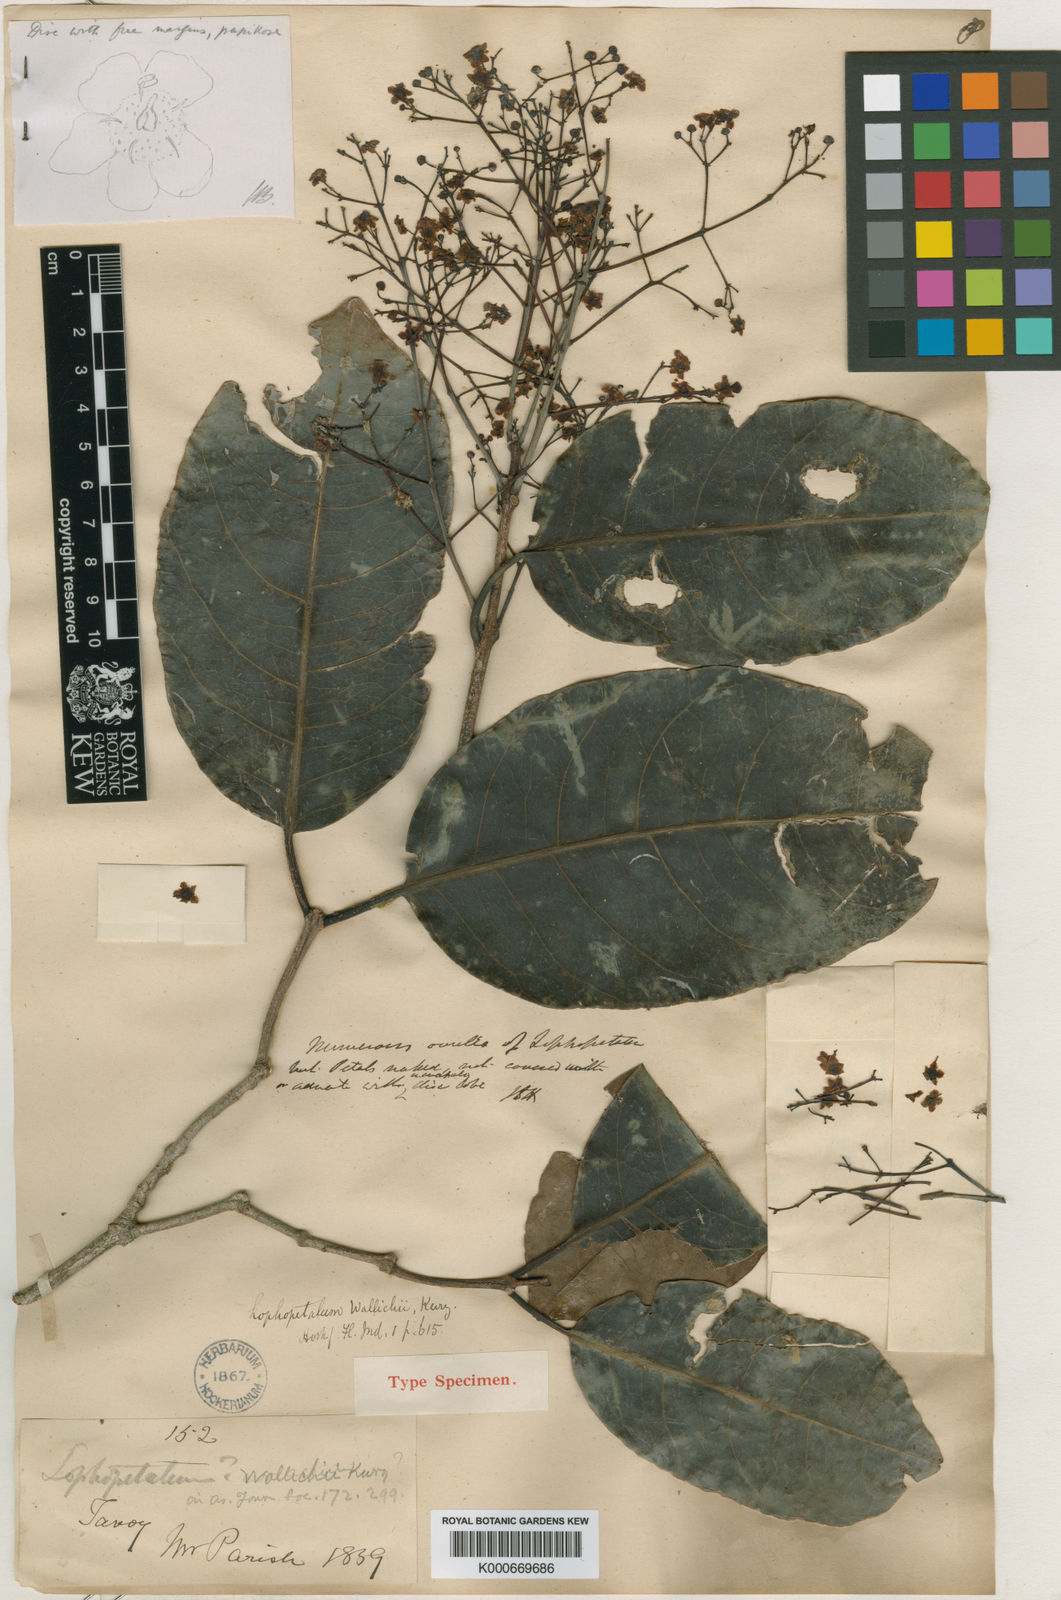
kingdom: Plantae
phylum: Tracheophyta
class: Magnoliopsida
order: Celastrales
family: Celastraceae
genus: Lophopetalum
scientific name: Lophopetalum wallichii
